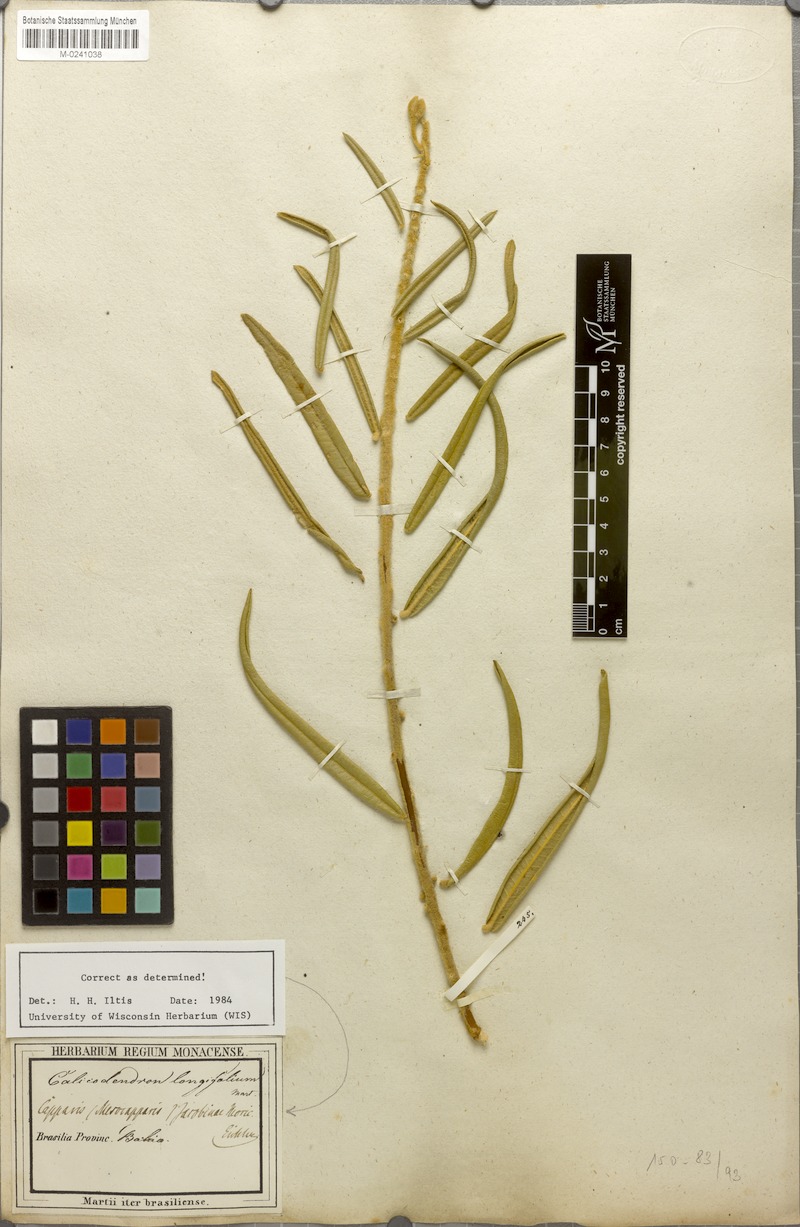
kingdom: Plantae
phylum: Tracheophyta
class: Magnoliopsida
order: Brassicales
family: Capparaceae
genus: Neocalyptrocalyx
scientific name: Neocalyptrocalyx longifolium
